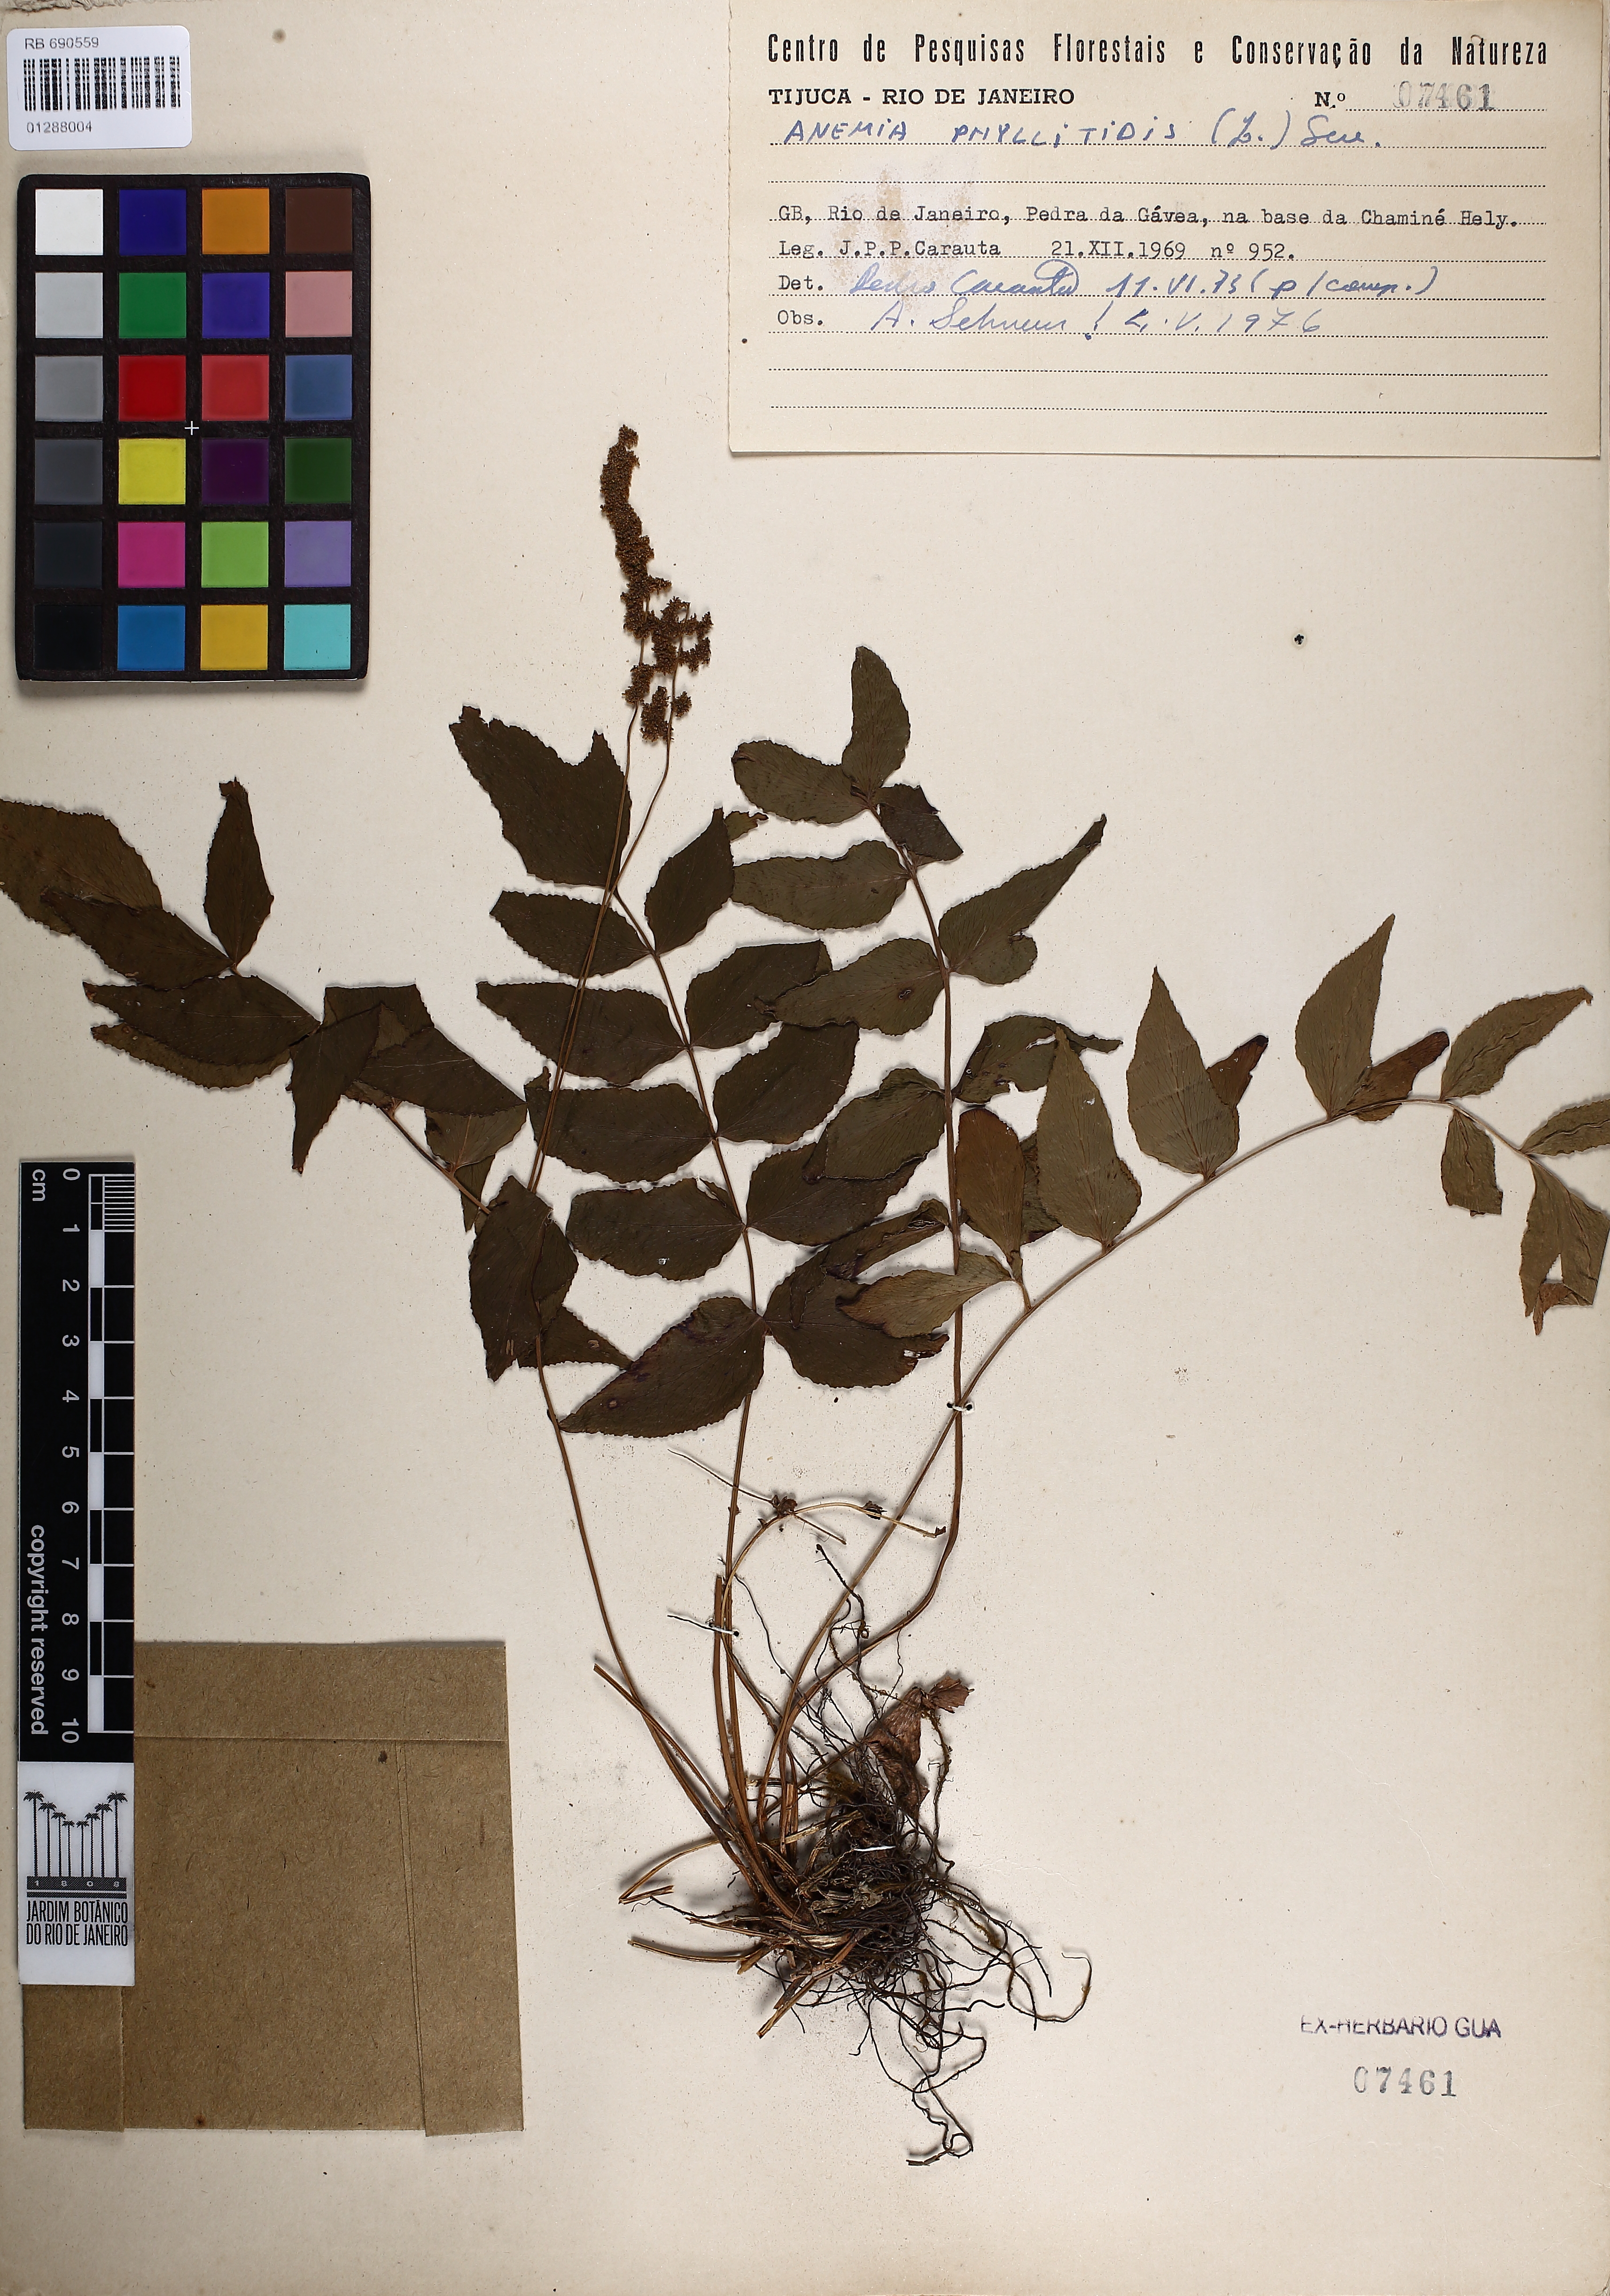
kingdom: Plantae
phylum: Tracheophyta
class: Polypodiopsida
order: Schizaeales
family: Anemiaceae
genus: Anemia
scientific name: Anemia phyllitidis
